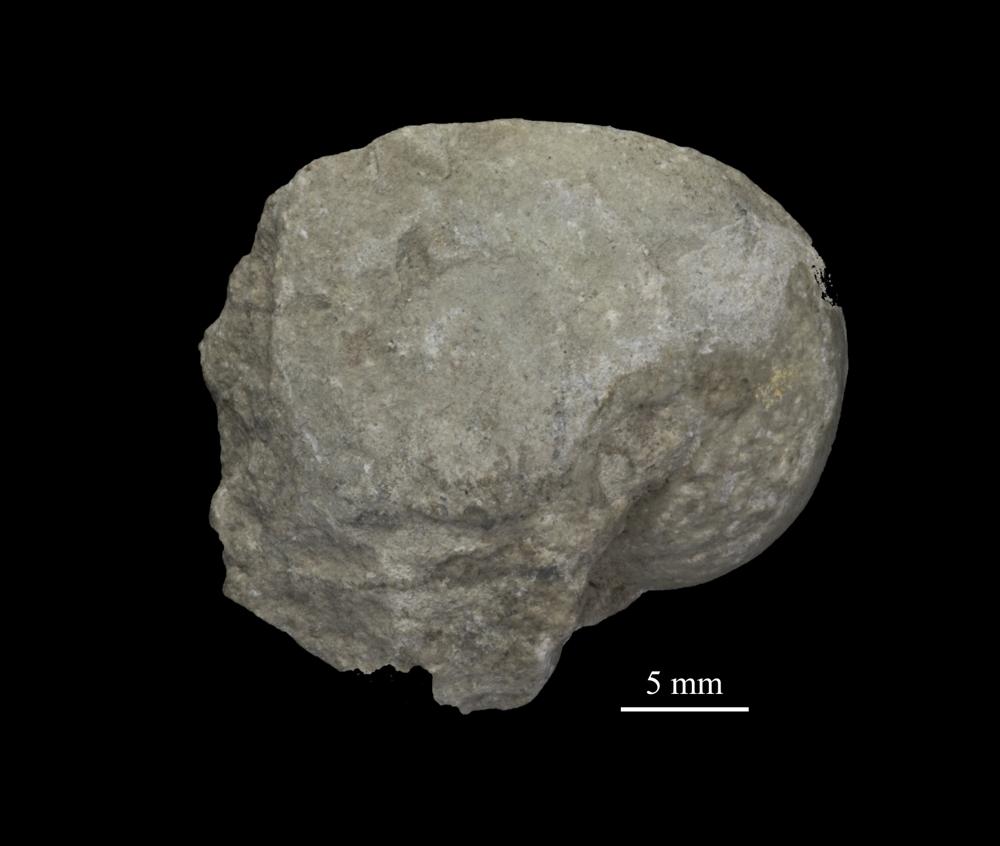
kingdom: Animalia
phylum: Mollusca
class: Gastropoda
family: Bellerophontidae
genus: Cymbularia
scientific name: Cymbularia angusta
